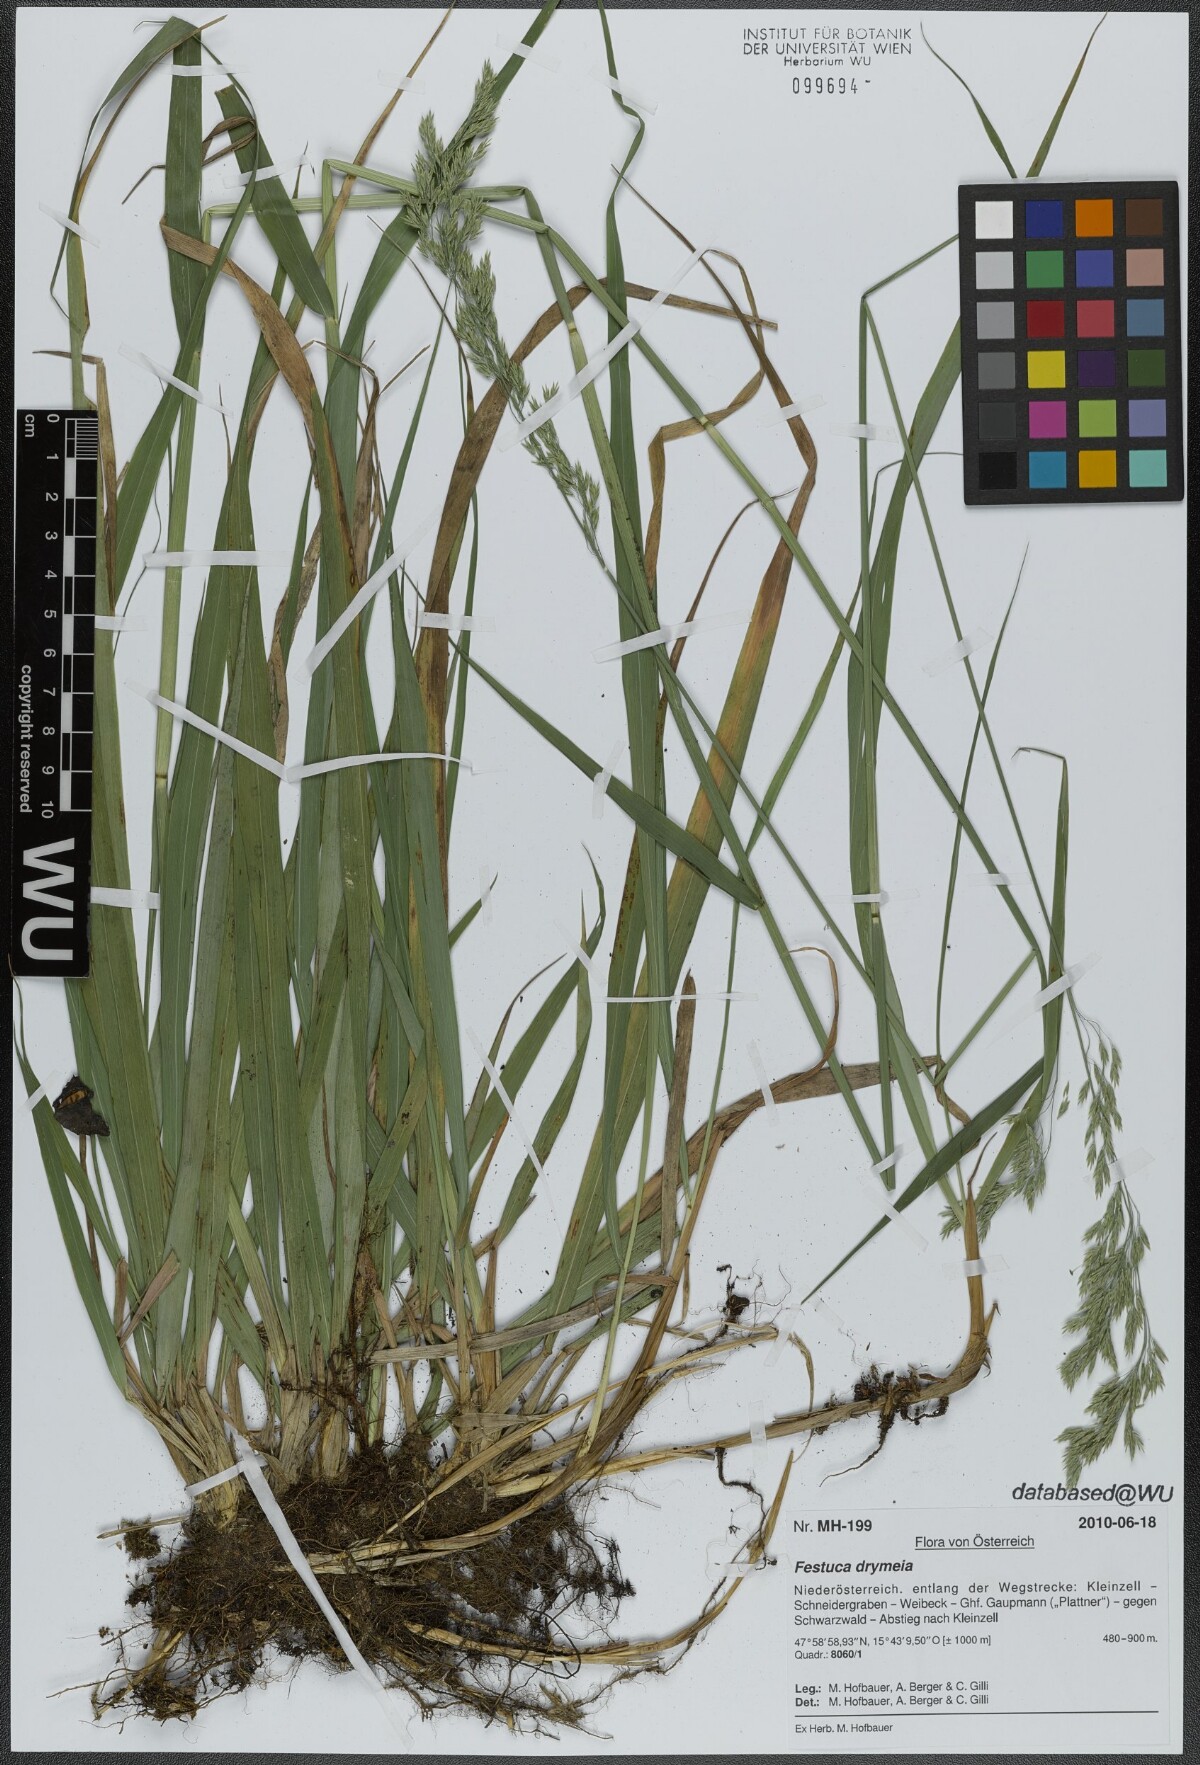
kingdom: Plantae
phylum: Tracheophyta
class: Liliopsida
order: Poales
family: Poaceae
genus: Festuca
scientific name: Festuca drymeja
